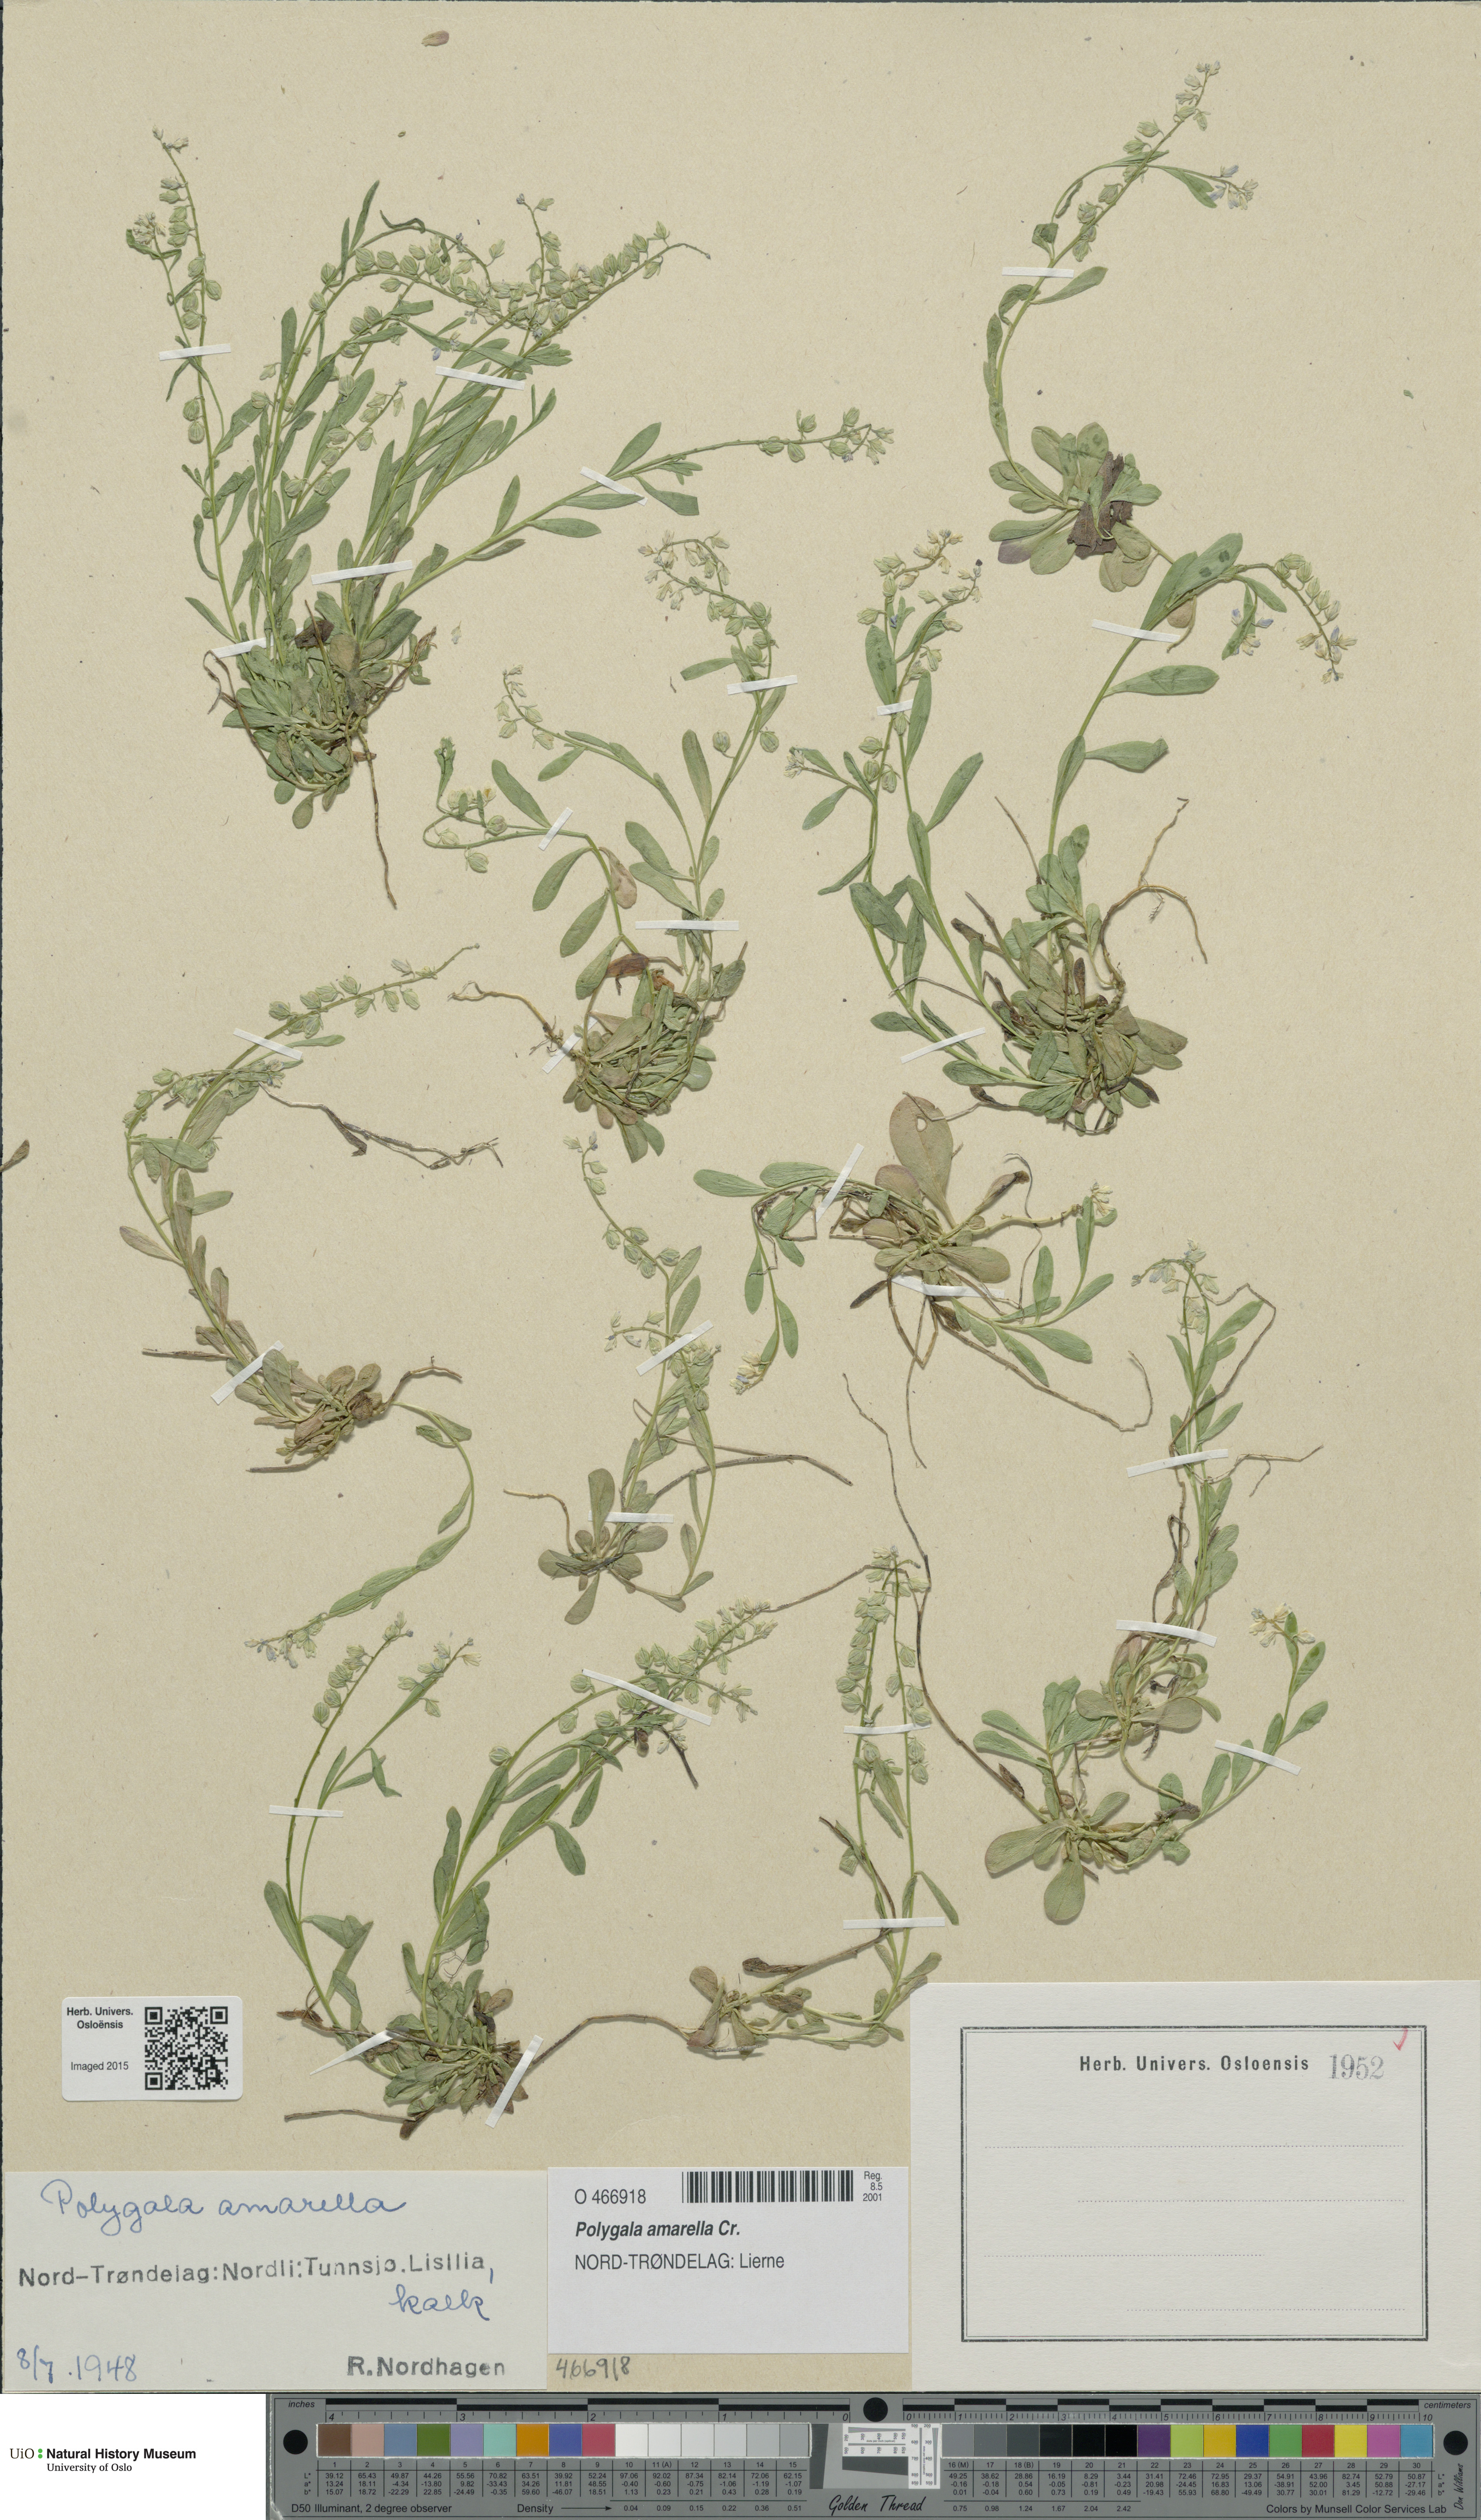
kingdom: Plantae
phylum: Tracheophyta
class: Magnoliopsida
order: Fabales
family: Polygalaceae
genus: Polygala
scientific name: Polygala amarella
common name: Dwarf milkwort
